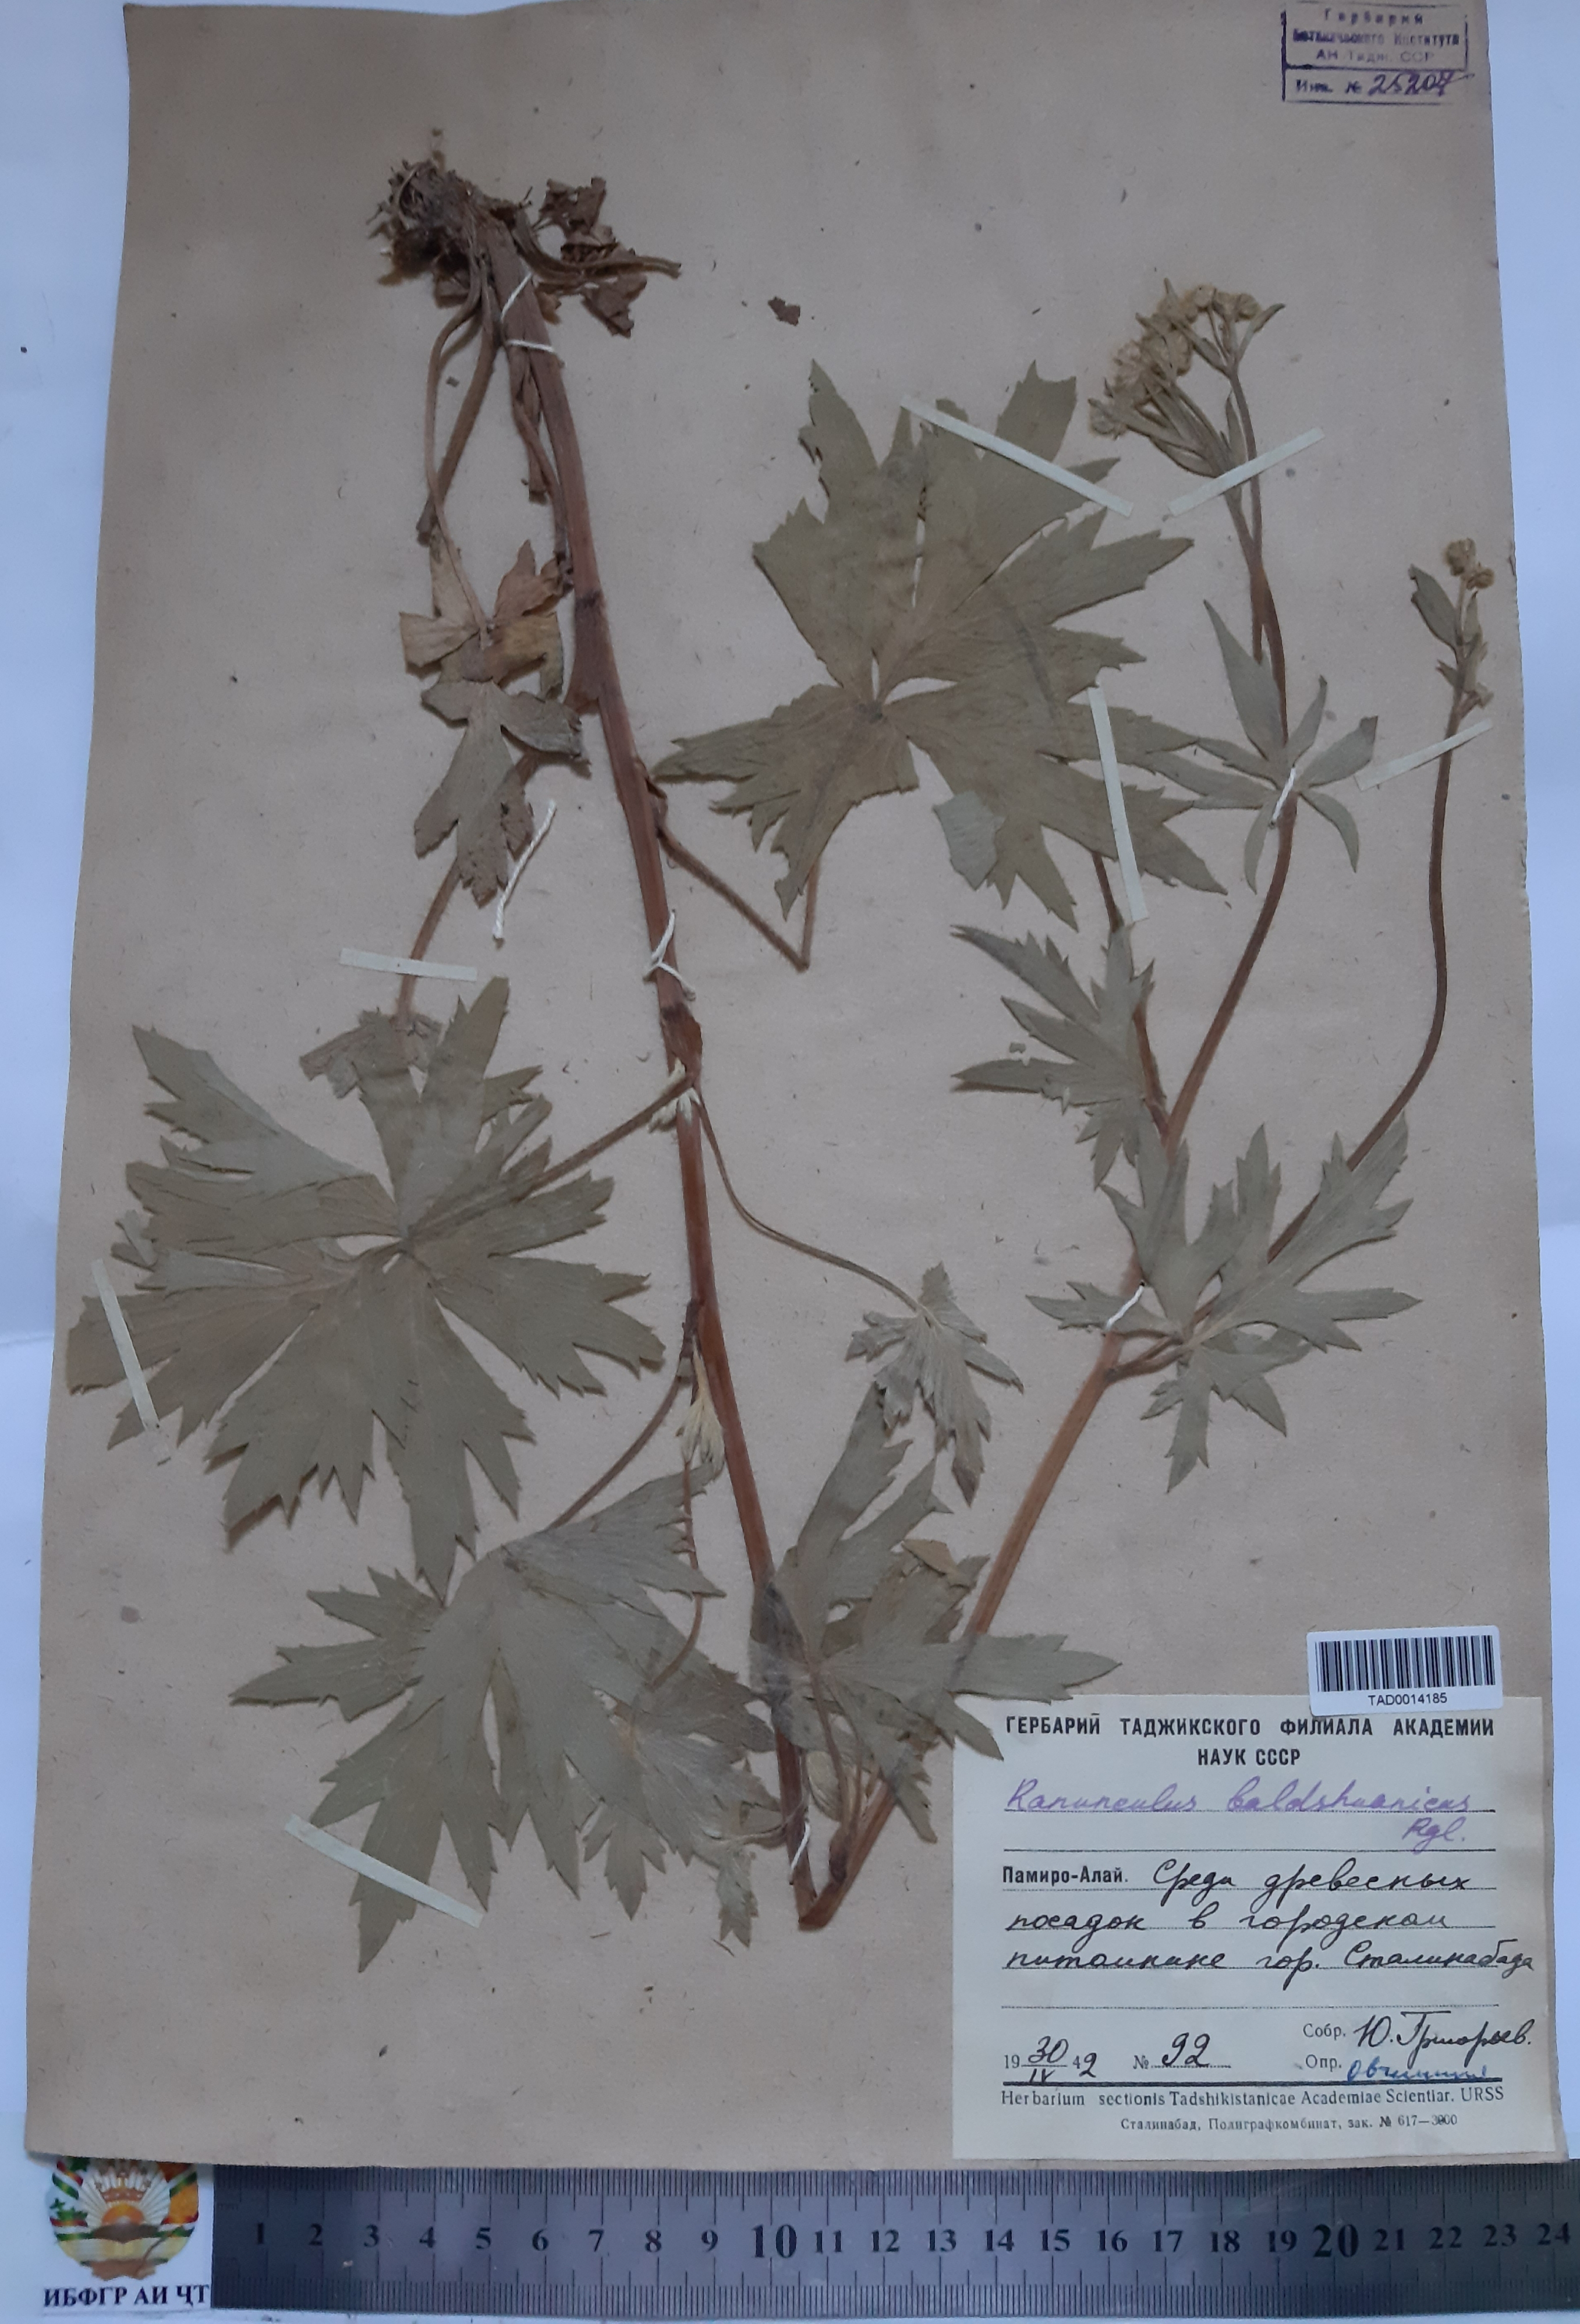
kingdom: Plantae
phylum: Tracheophyta
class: Magnoliopsida
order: Ranunculales
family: Ranunculaceae
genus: Ranunculus
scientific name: Ranunculus baldshuanicus
